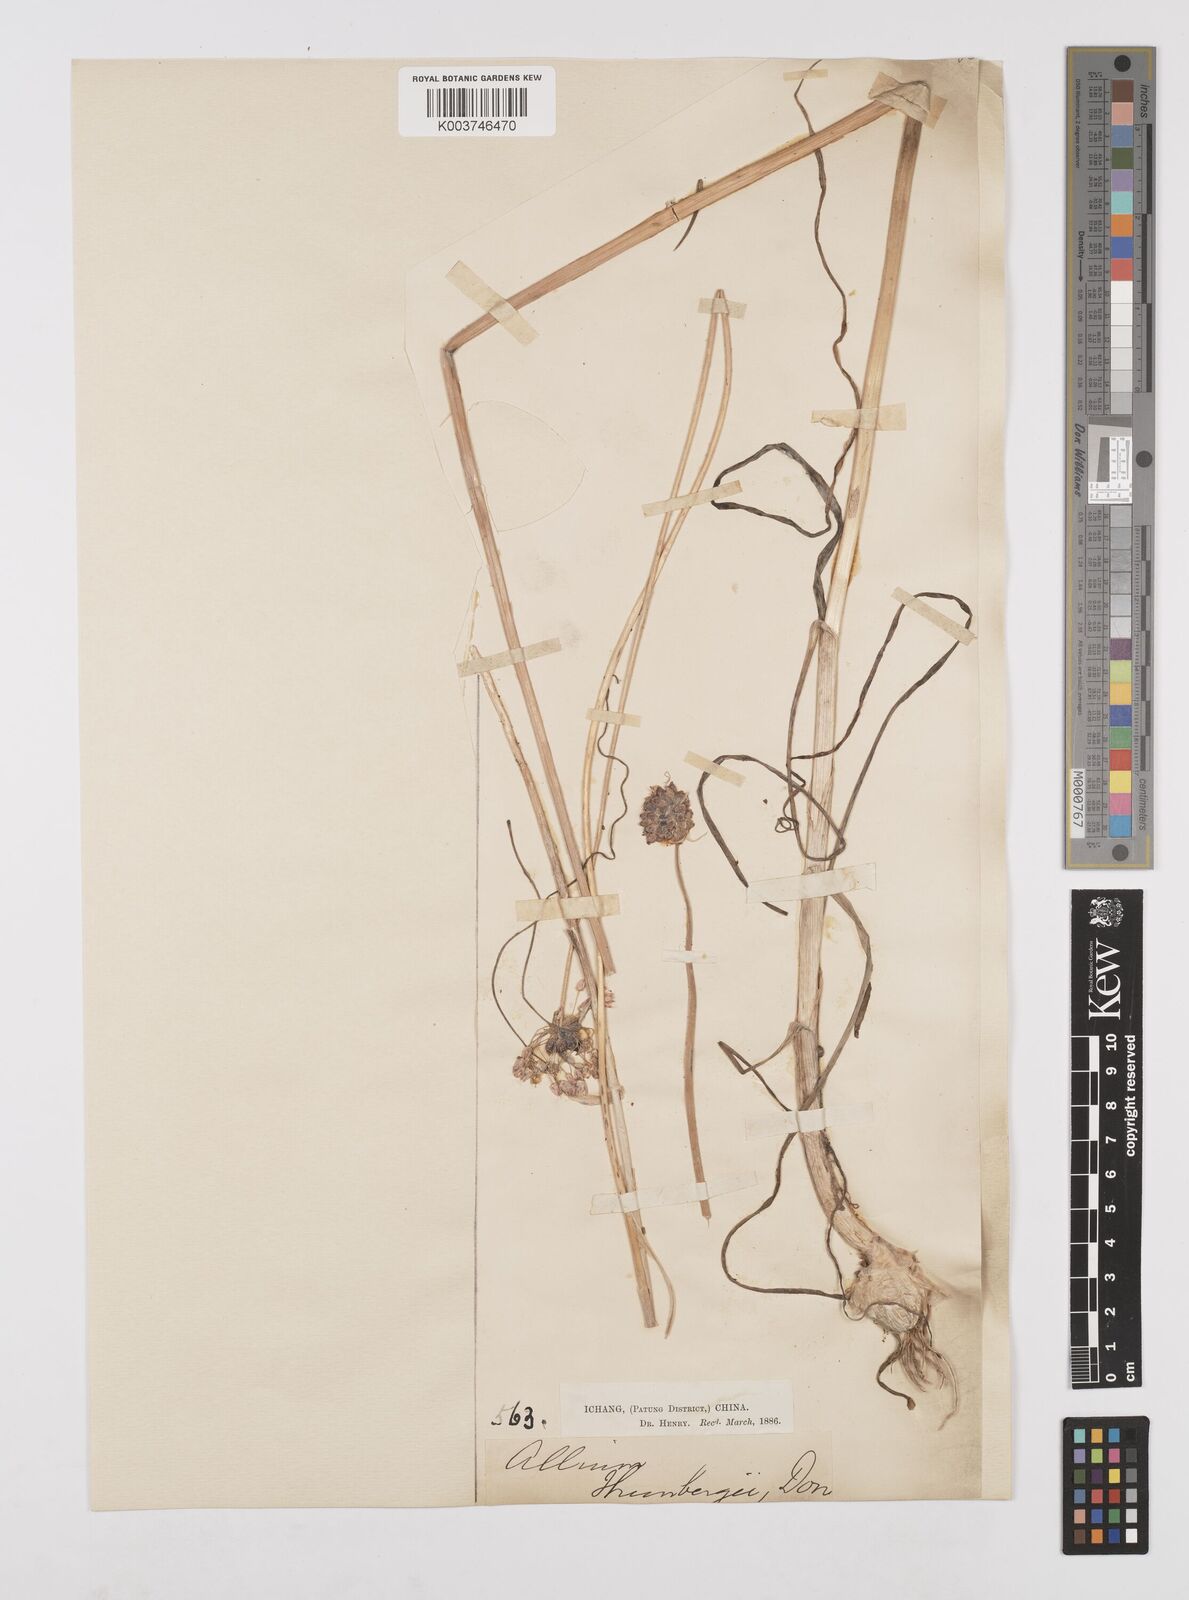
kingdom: Plantae
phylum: Tracheophyta
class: Liliopsida
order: Asparagales
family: Amaryllidaceae
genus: Allium
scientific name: Allium macrostemon
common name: Chinese garlic
